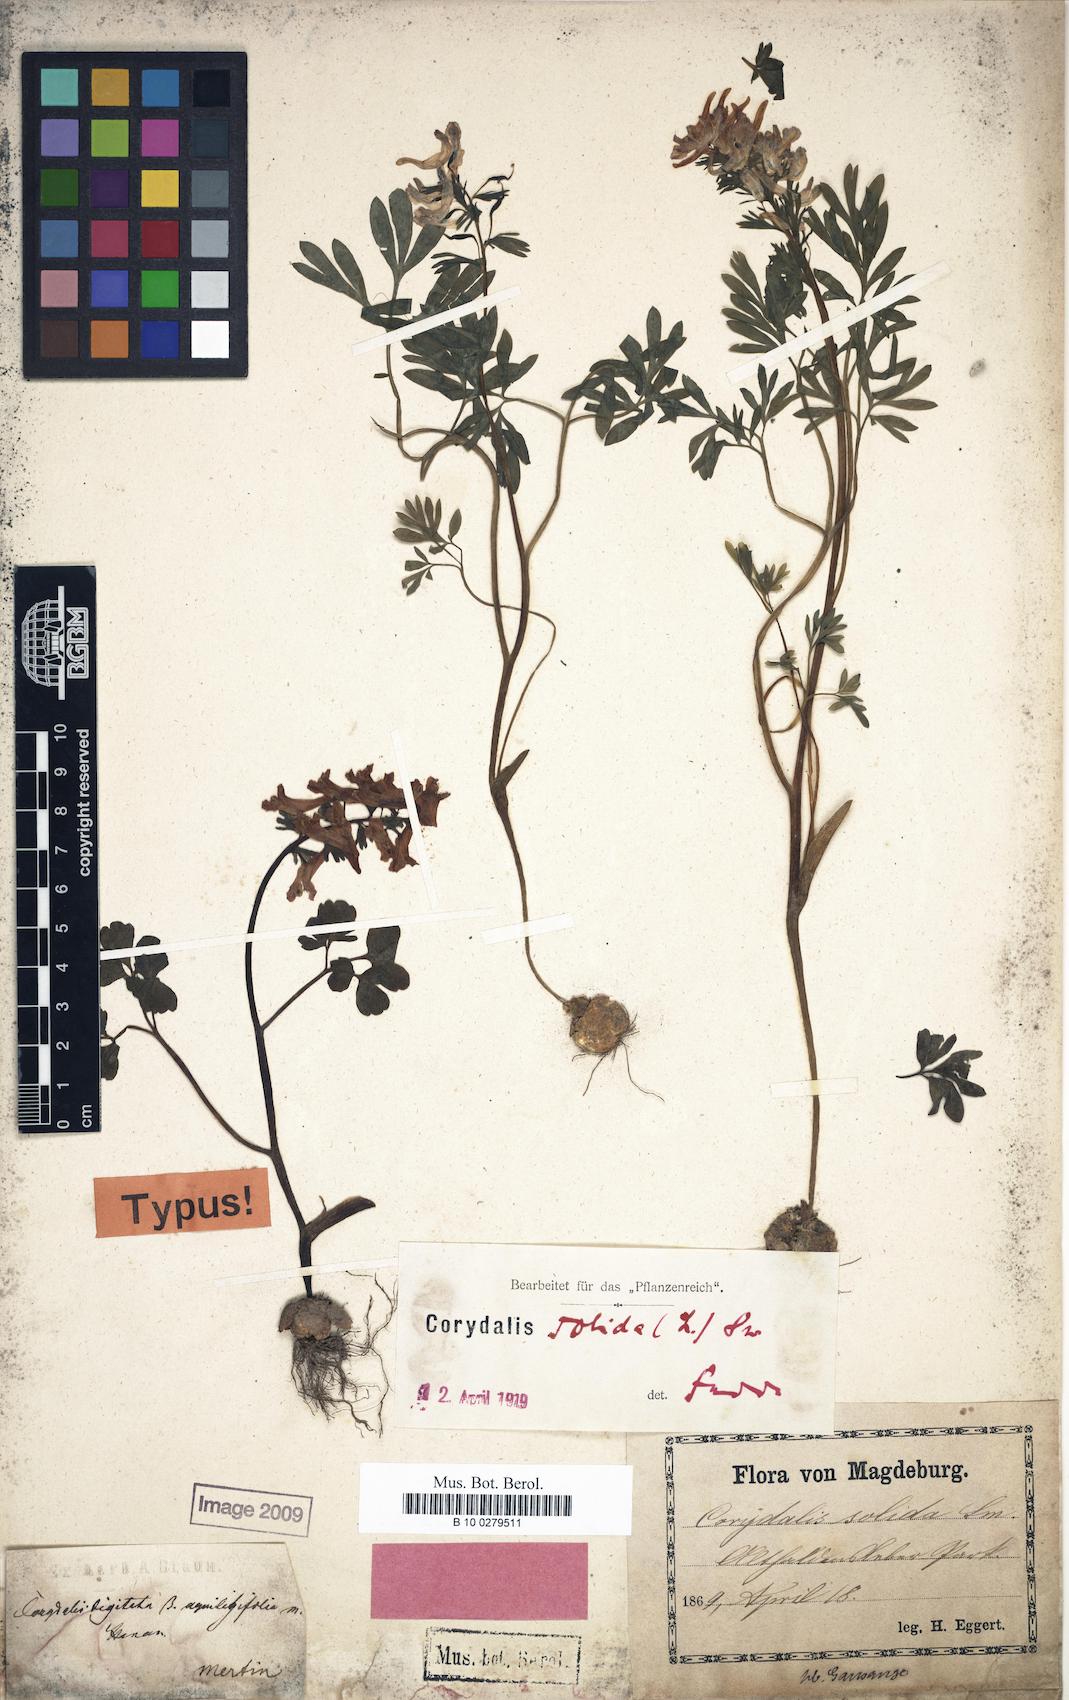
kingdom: Plantae
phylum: Tracheophyta
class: Magnoliopsida
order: Ranunculales
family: Papaveraceae
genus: Corydalis
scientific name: Corydalis solida
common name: Bird-in-a-bush
